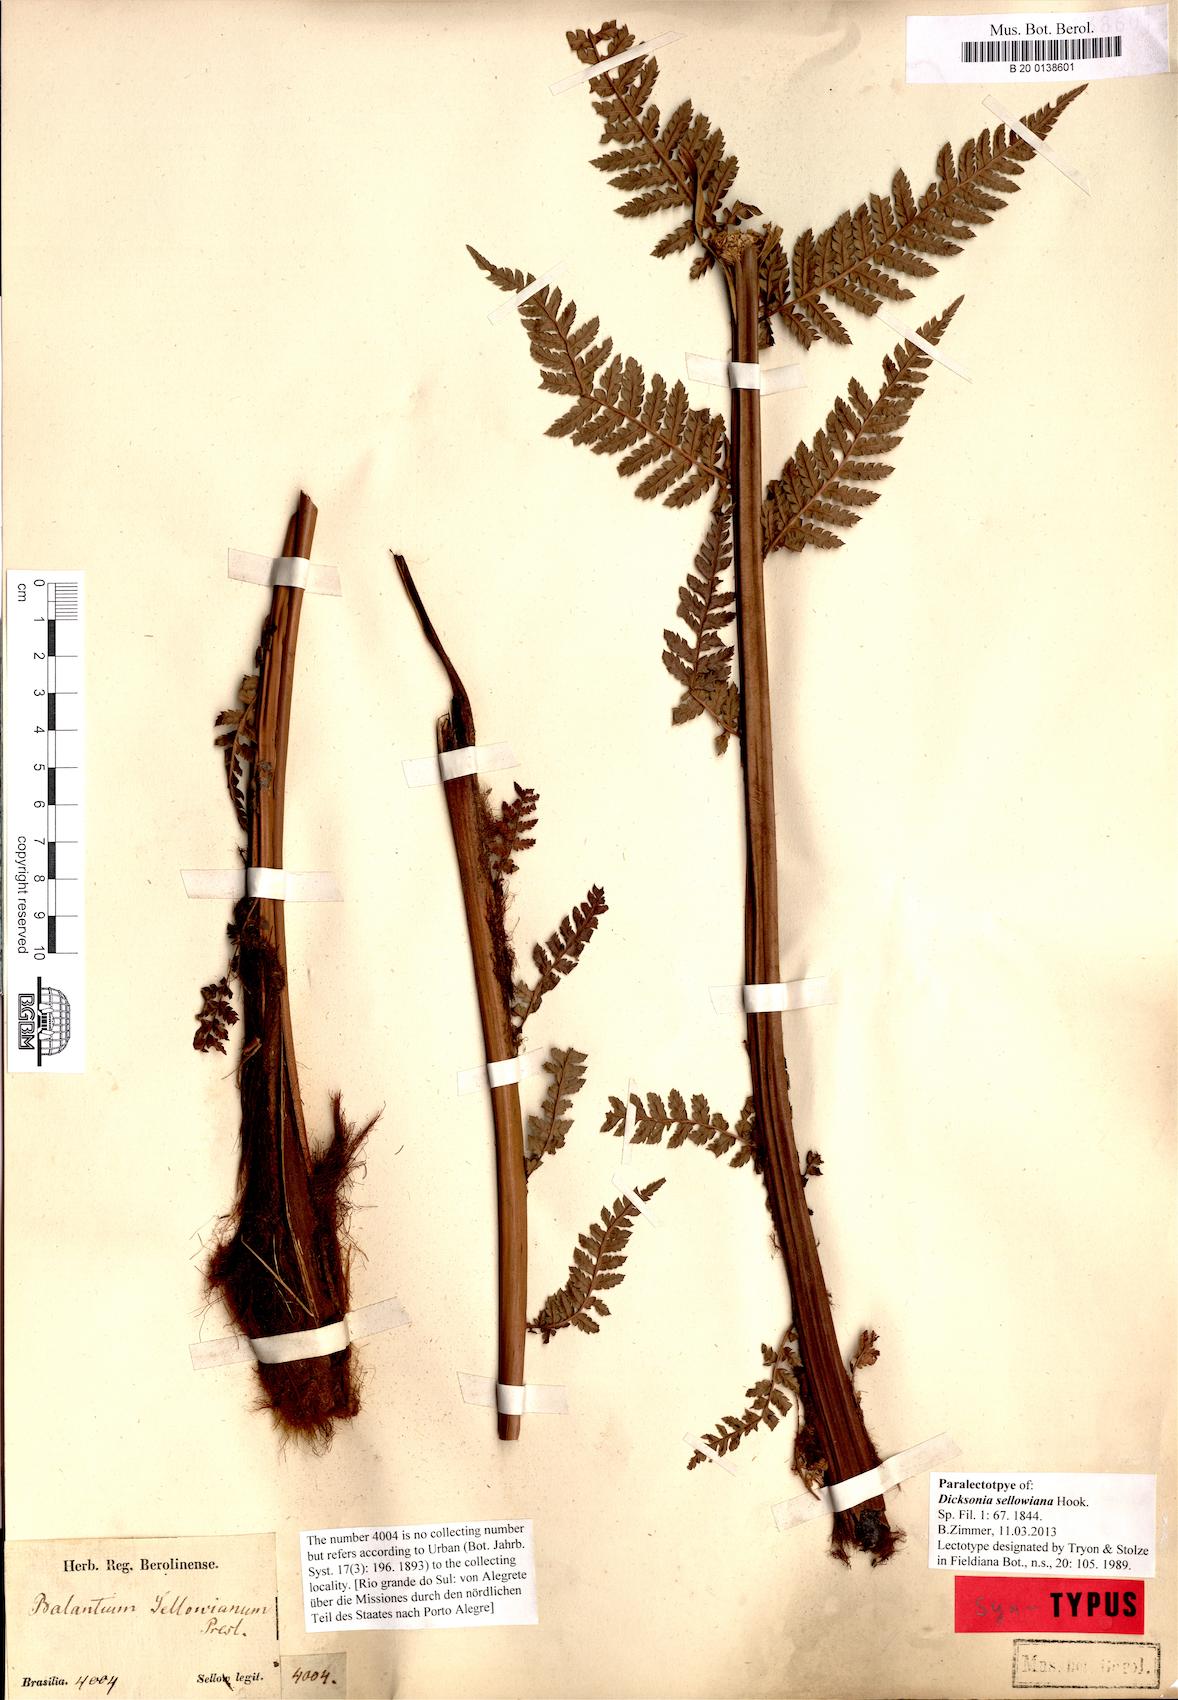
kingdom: Plantae
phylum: Tracheophyta
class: Polypodiopsida
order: Cyatheales
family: Dicksoniaceae
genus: Dicksonia
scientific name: Dicksonia sellowiana
